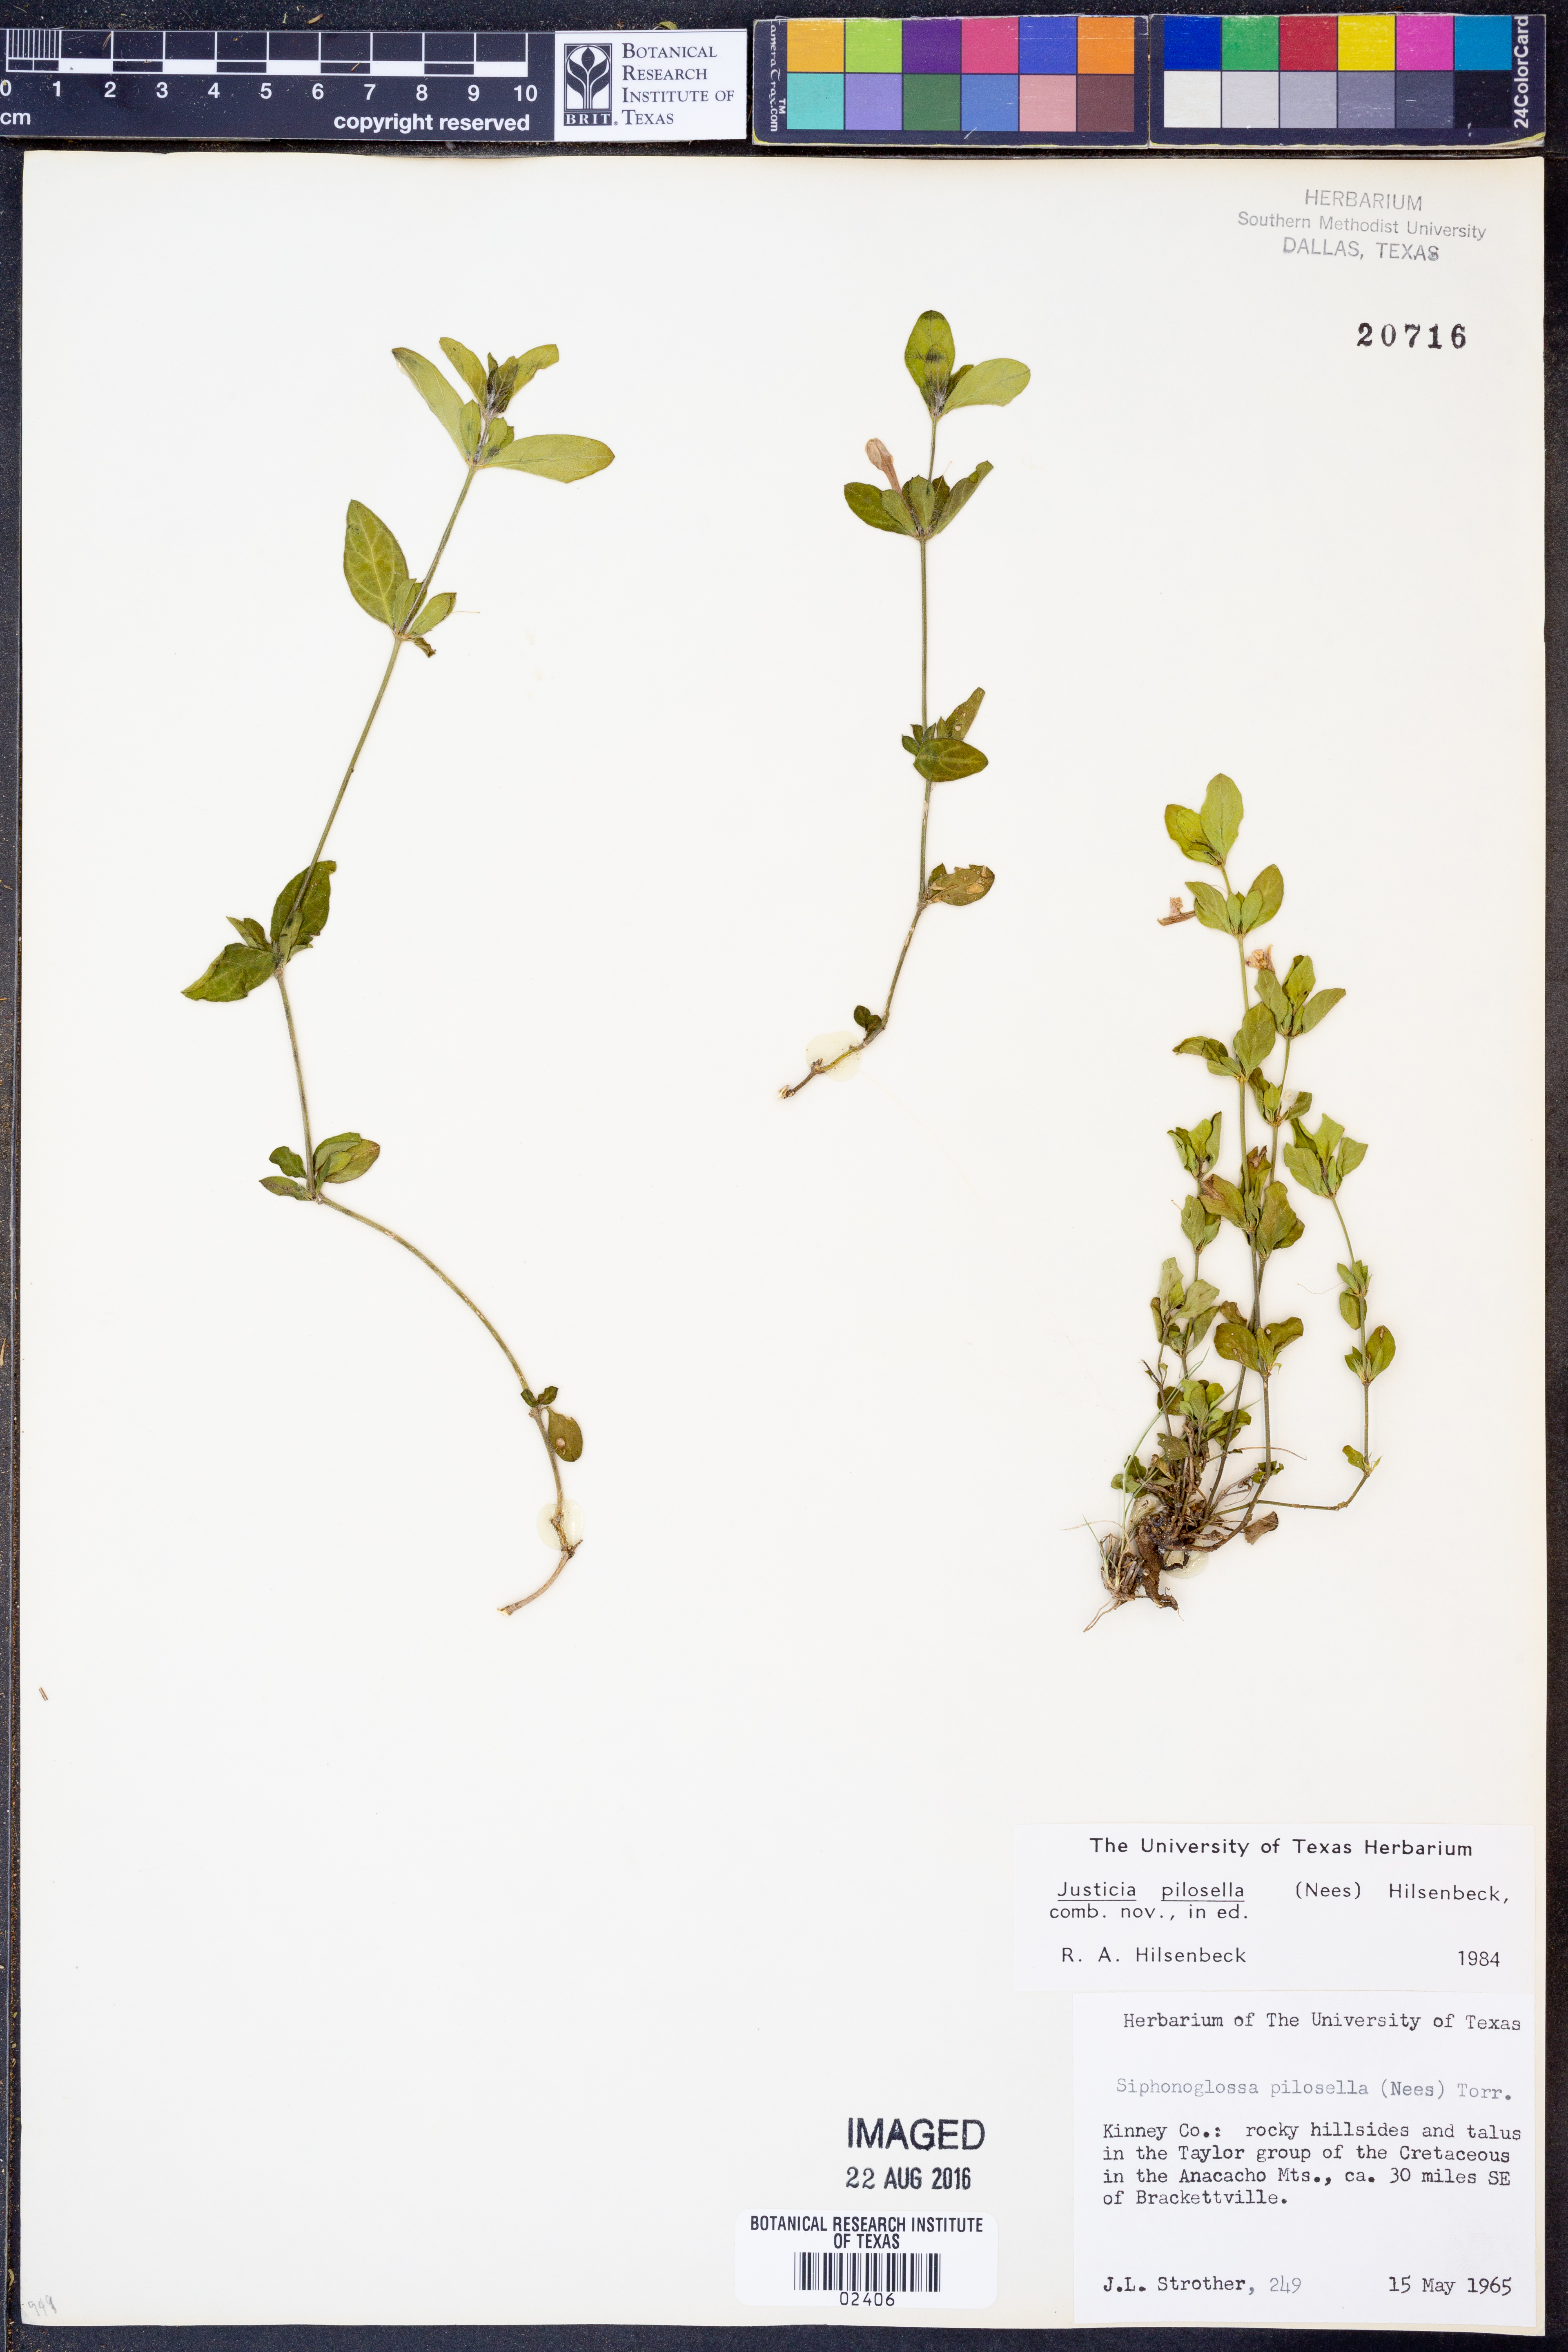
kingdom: Plantae
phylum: Tracheophyta
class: Magnoliopsida
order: Lamiales
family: Acanthaceae
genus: Justicia
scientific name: Justicia pilosella
